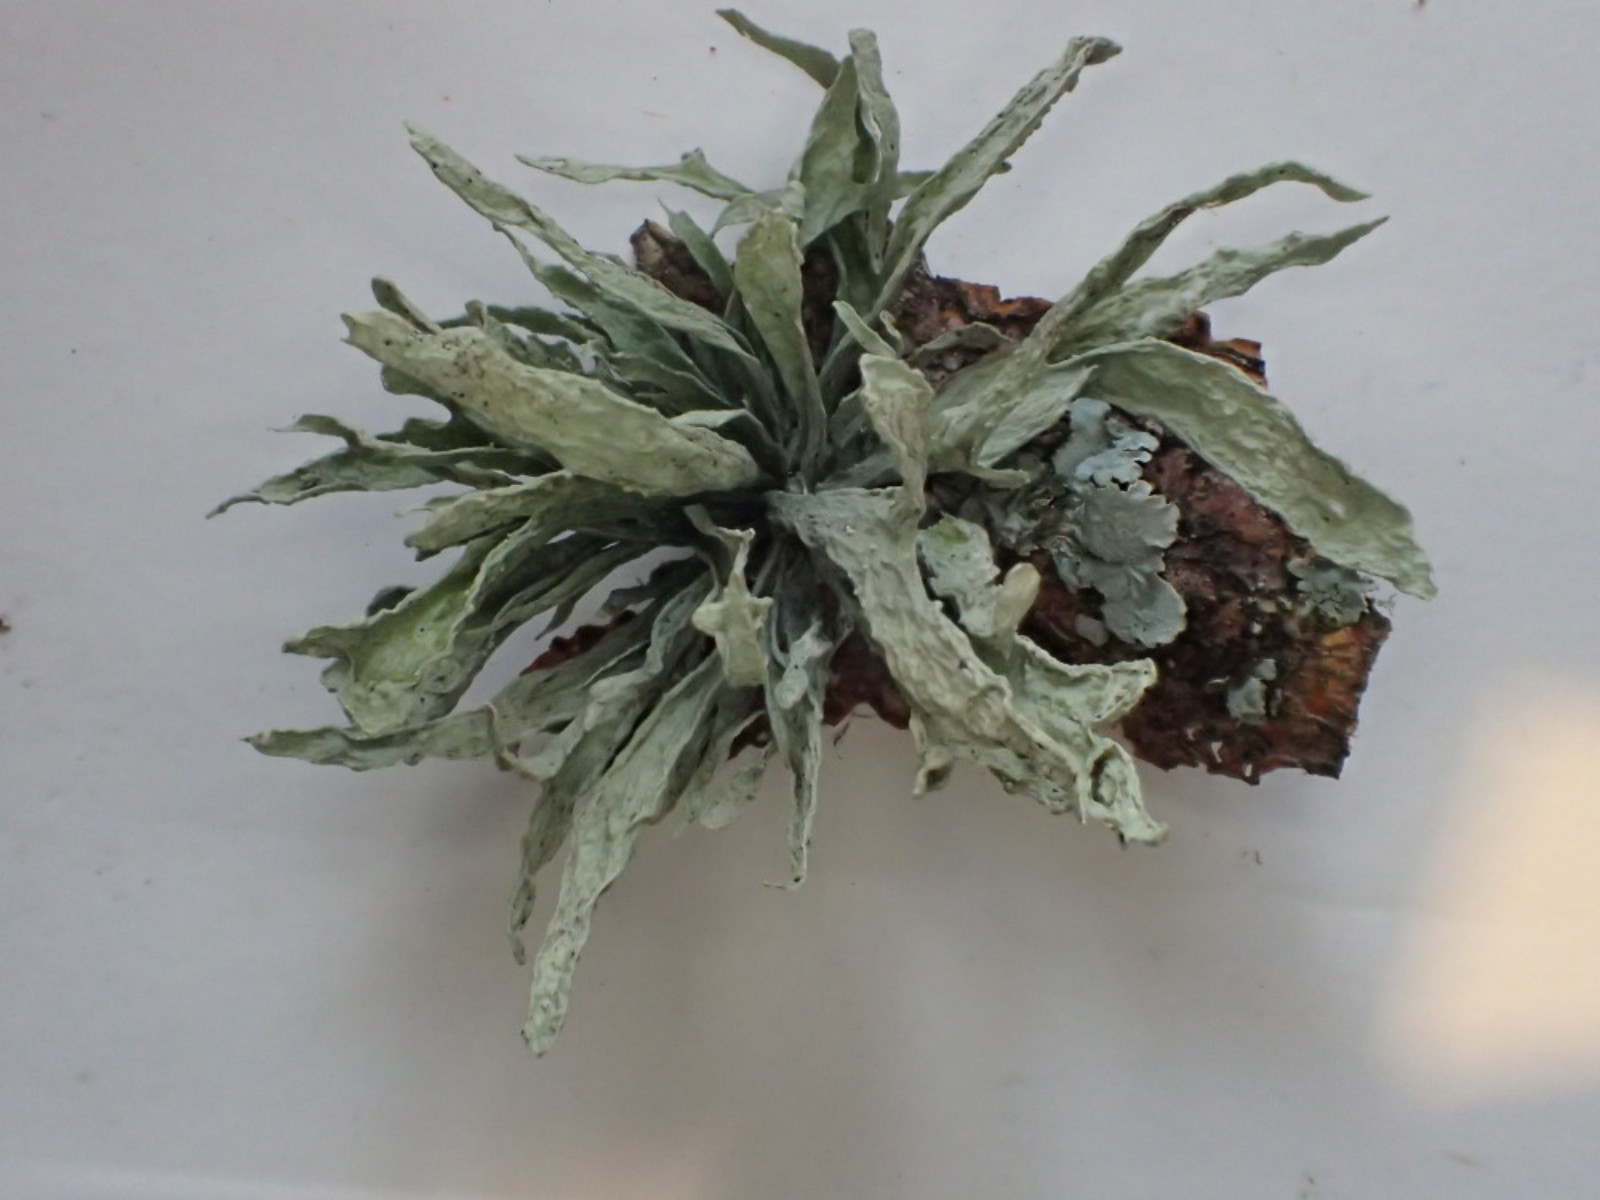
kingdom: Fungi
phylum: Ascomycota
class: Lecanoromycetes
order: Lecanorales
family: Ramalinaceae
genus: Ramalina
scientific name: Ramalina fraxinea
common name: stor grenlav
